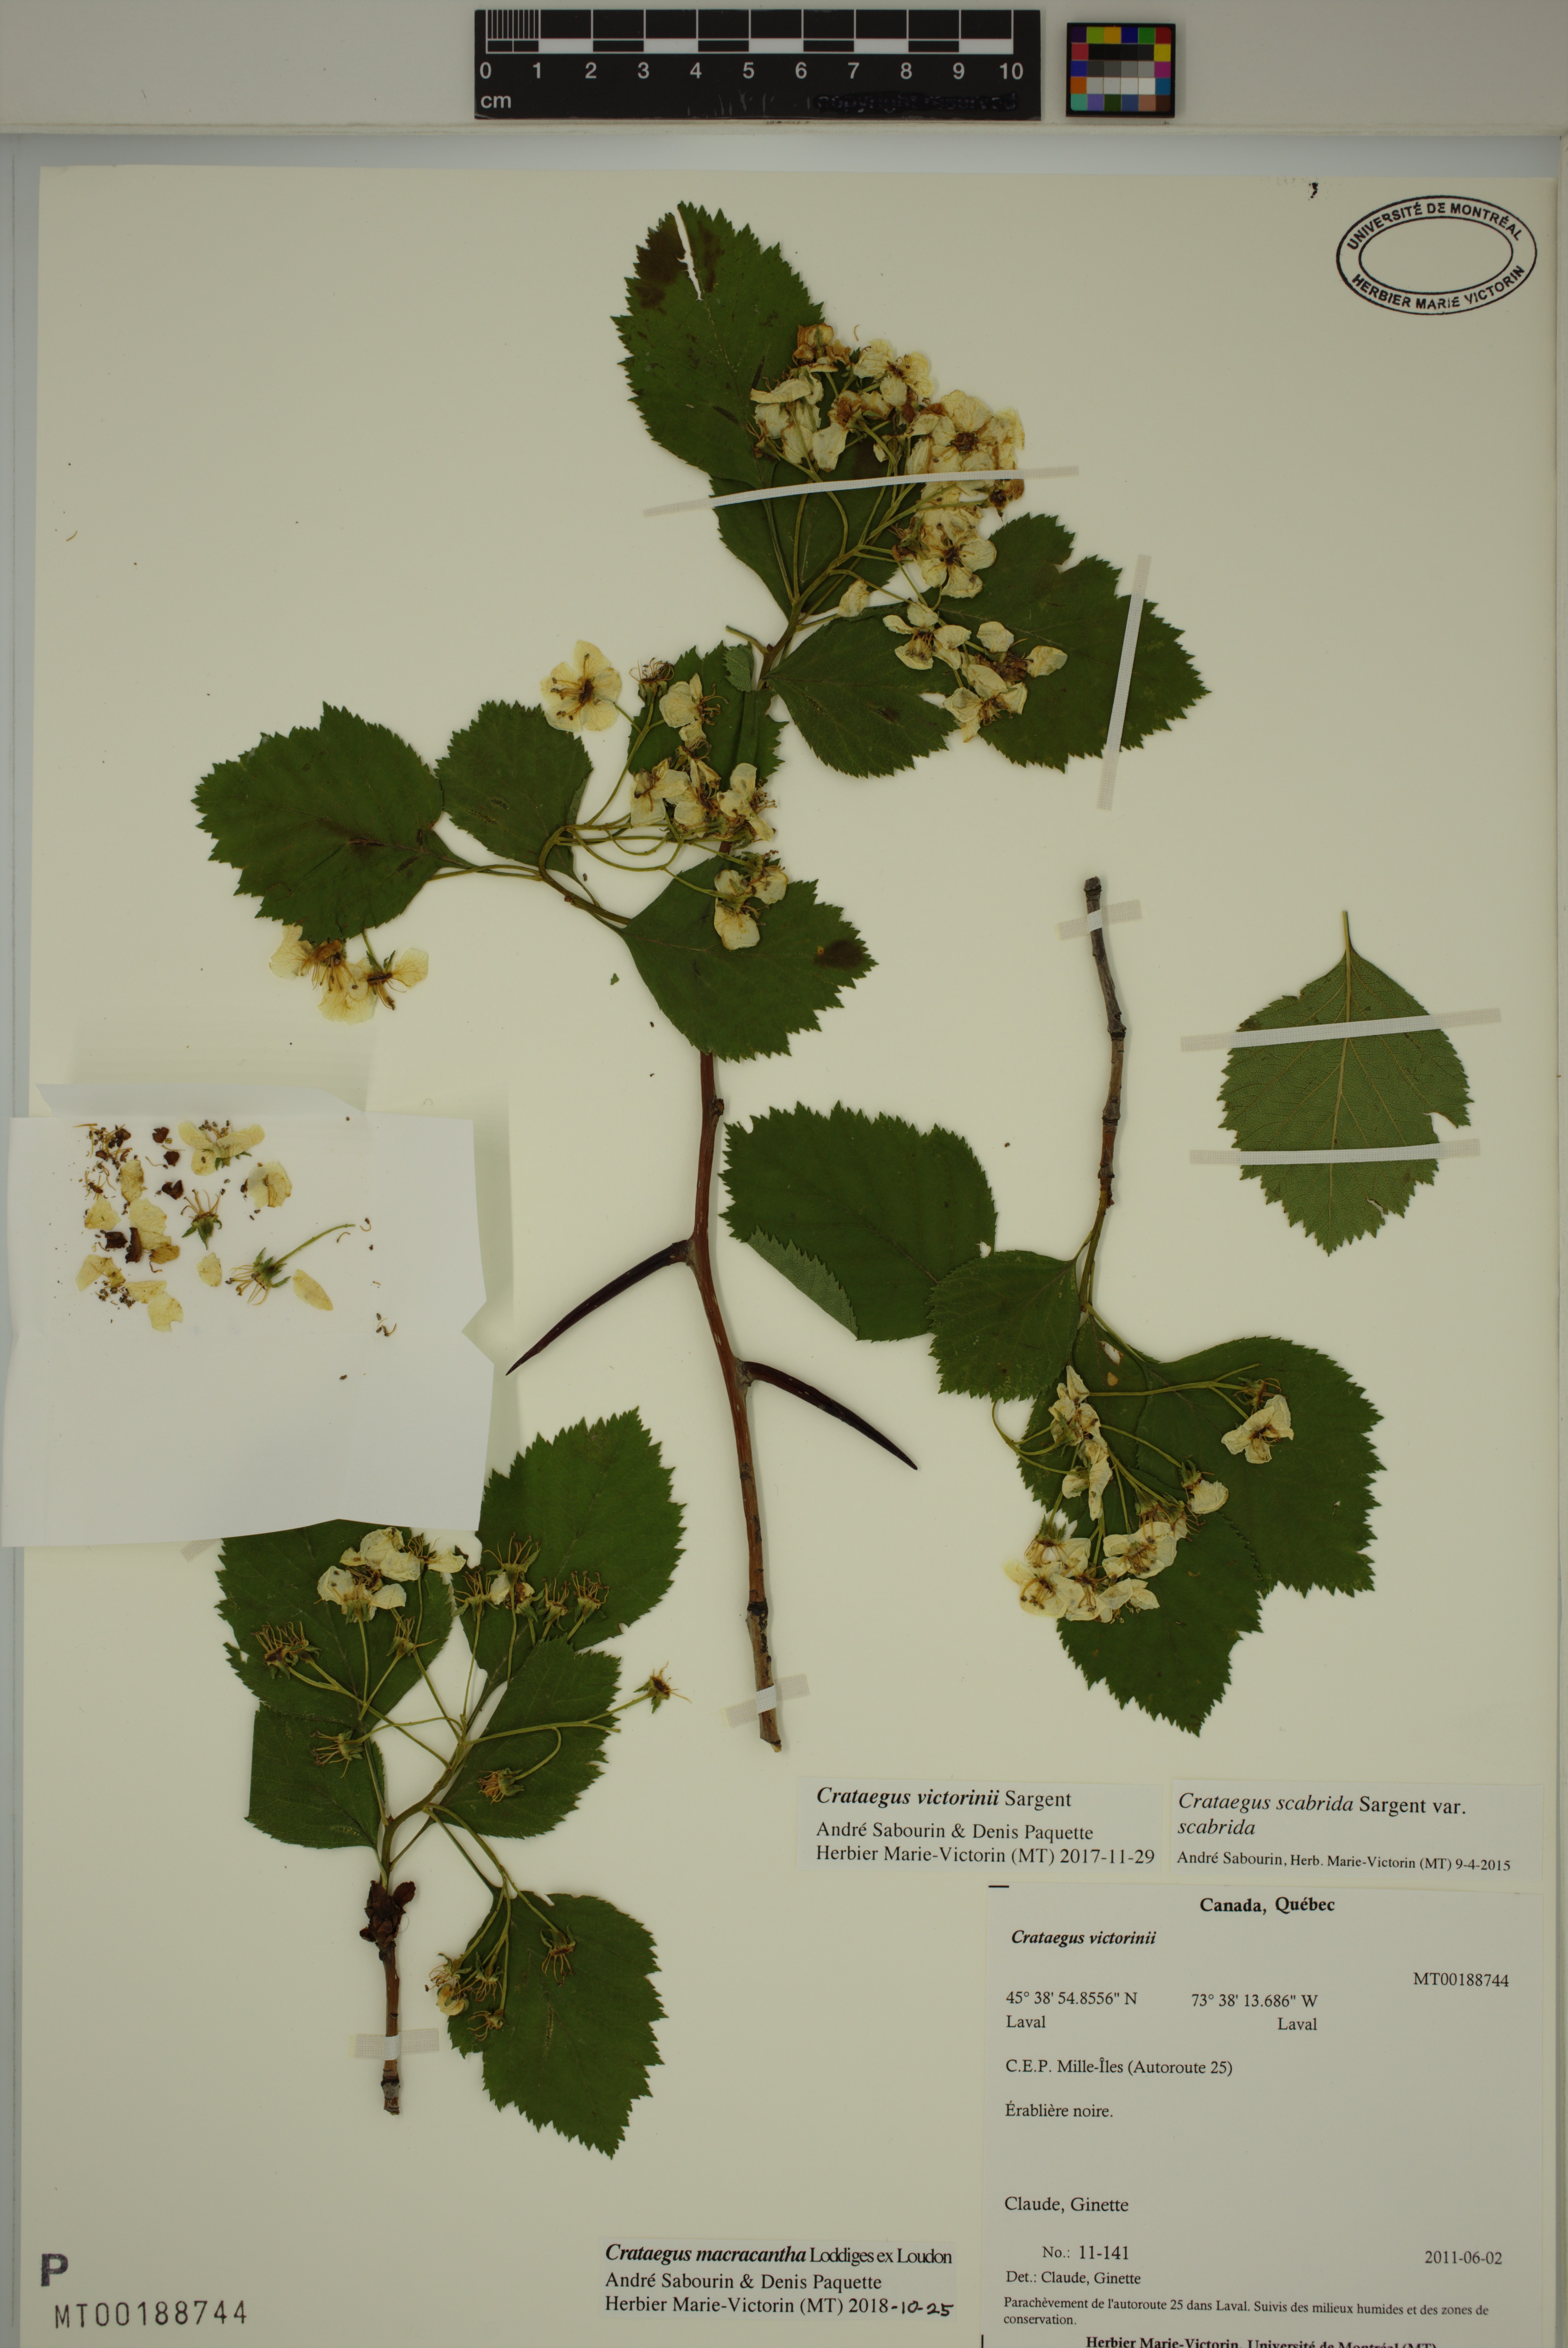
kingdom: Plantae
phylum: Tracheophyta
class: Magnoliopsida
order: Rosales
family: Rosaceae
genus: Crataegus
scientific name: Crataegus macracantha
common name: Large-thorn hawthorn
